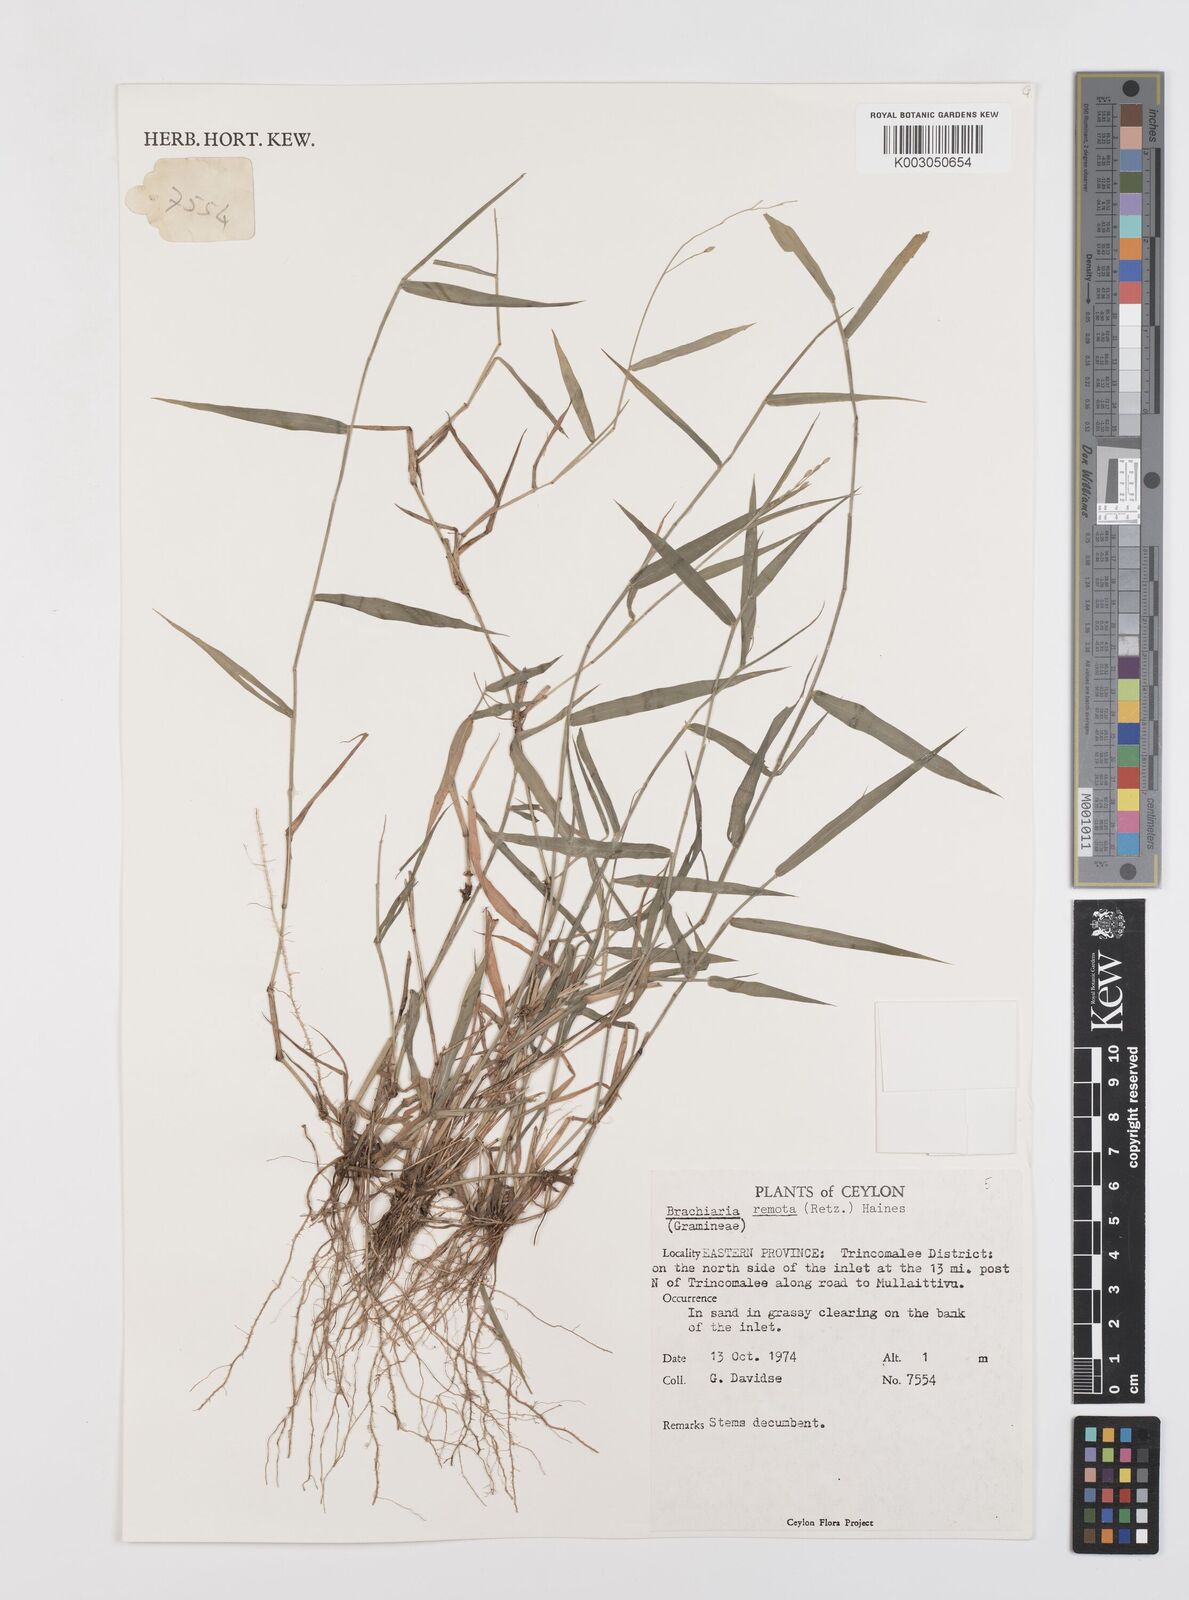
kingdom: Plantae
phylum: Tracheophyta
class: Liliopsida
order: Poales
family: Poaceae
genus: Urochloa
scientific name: Urochloa Brachiaria remota
